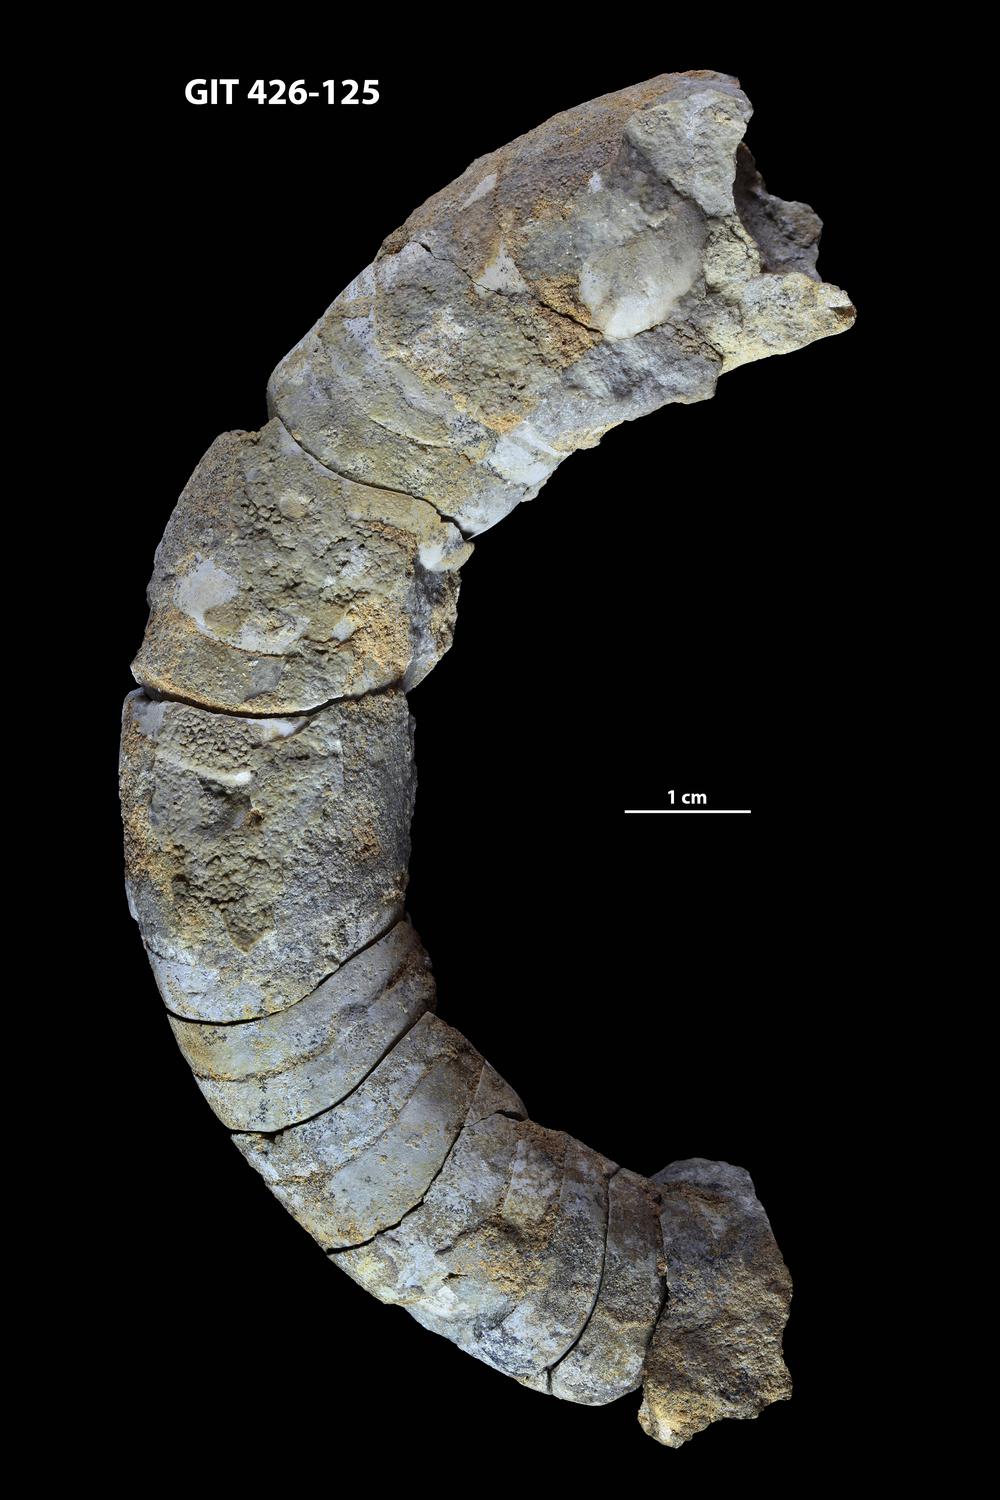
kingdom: Animalia
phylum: Mollusca
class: Cephalopoda
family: Estonioceratidae
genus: Tragoceras
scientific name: Tragoceras
